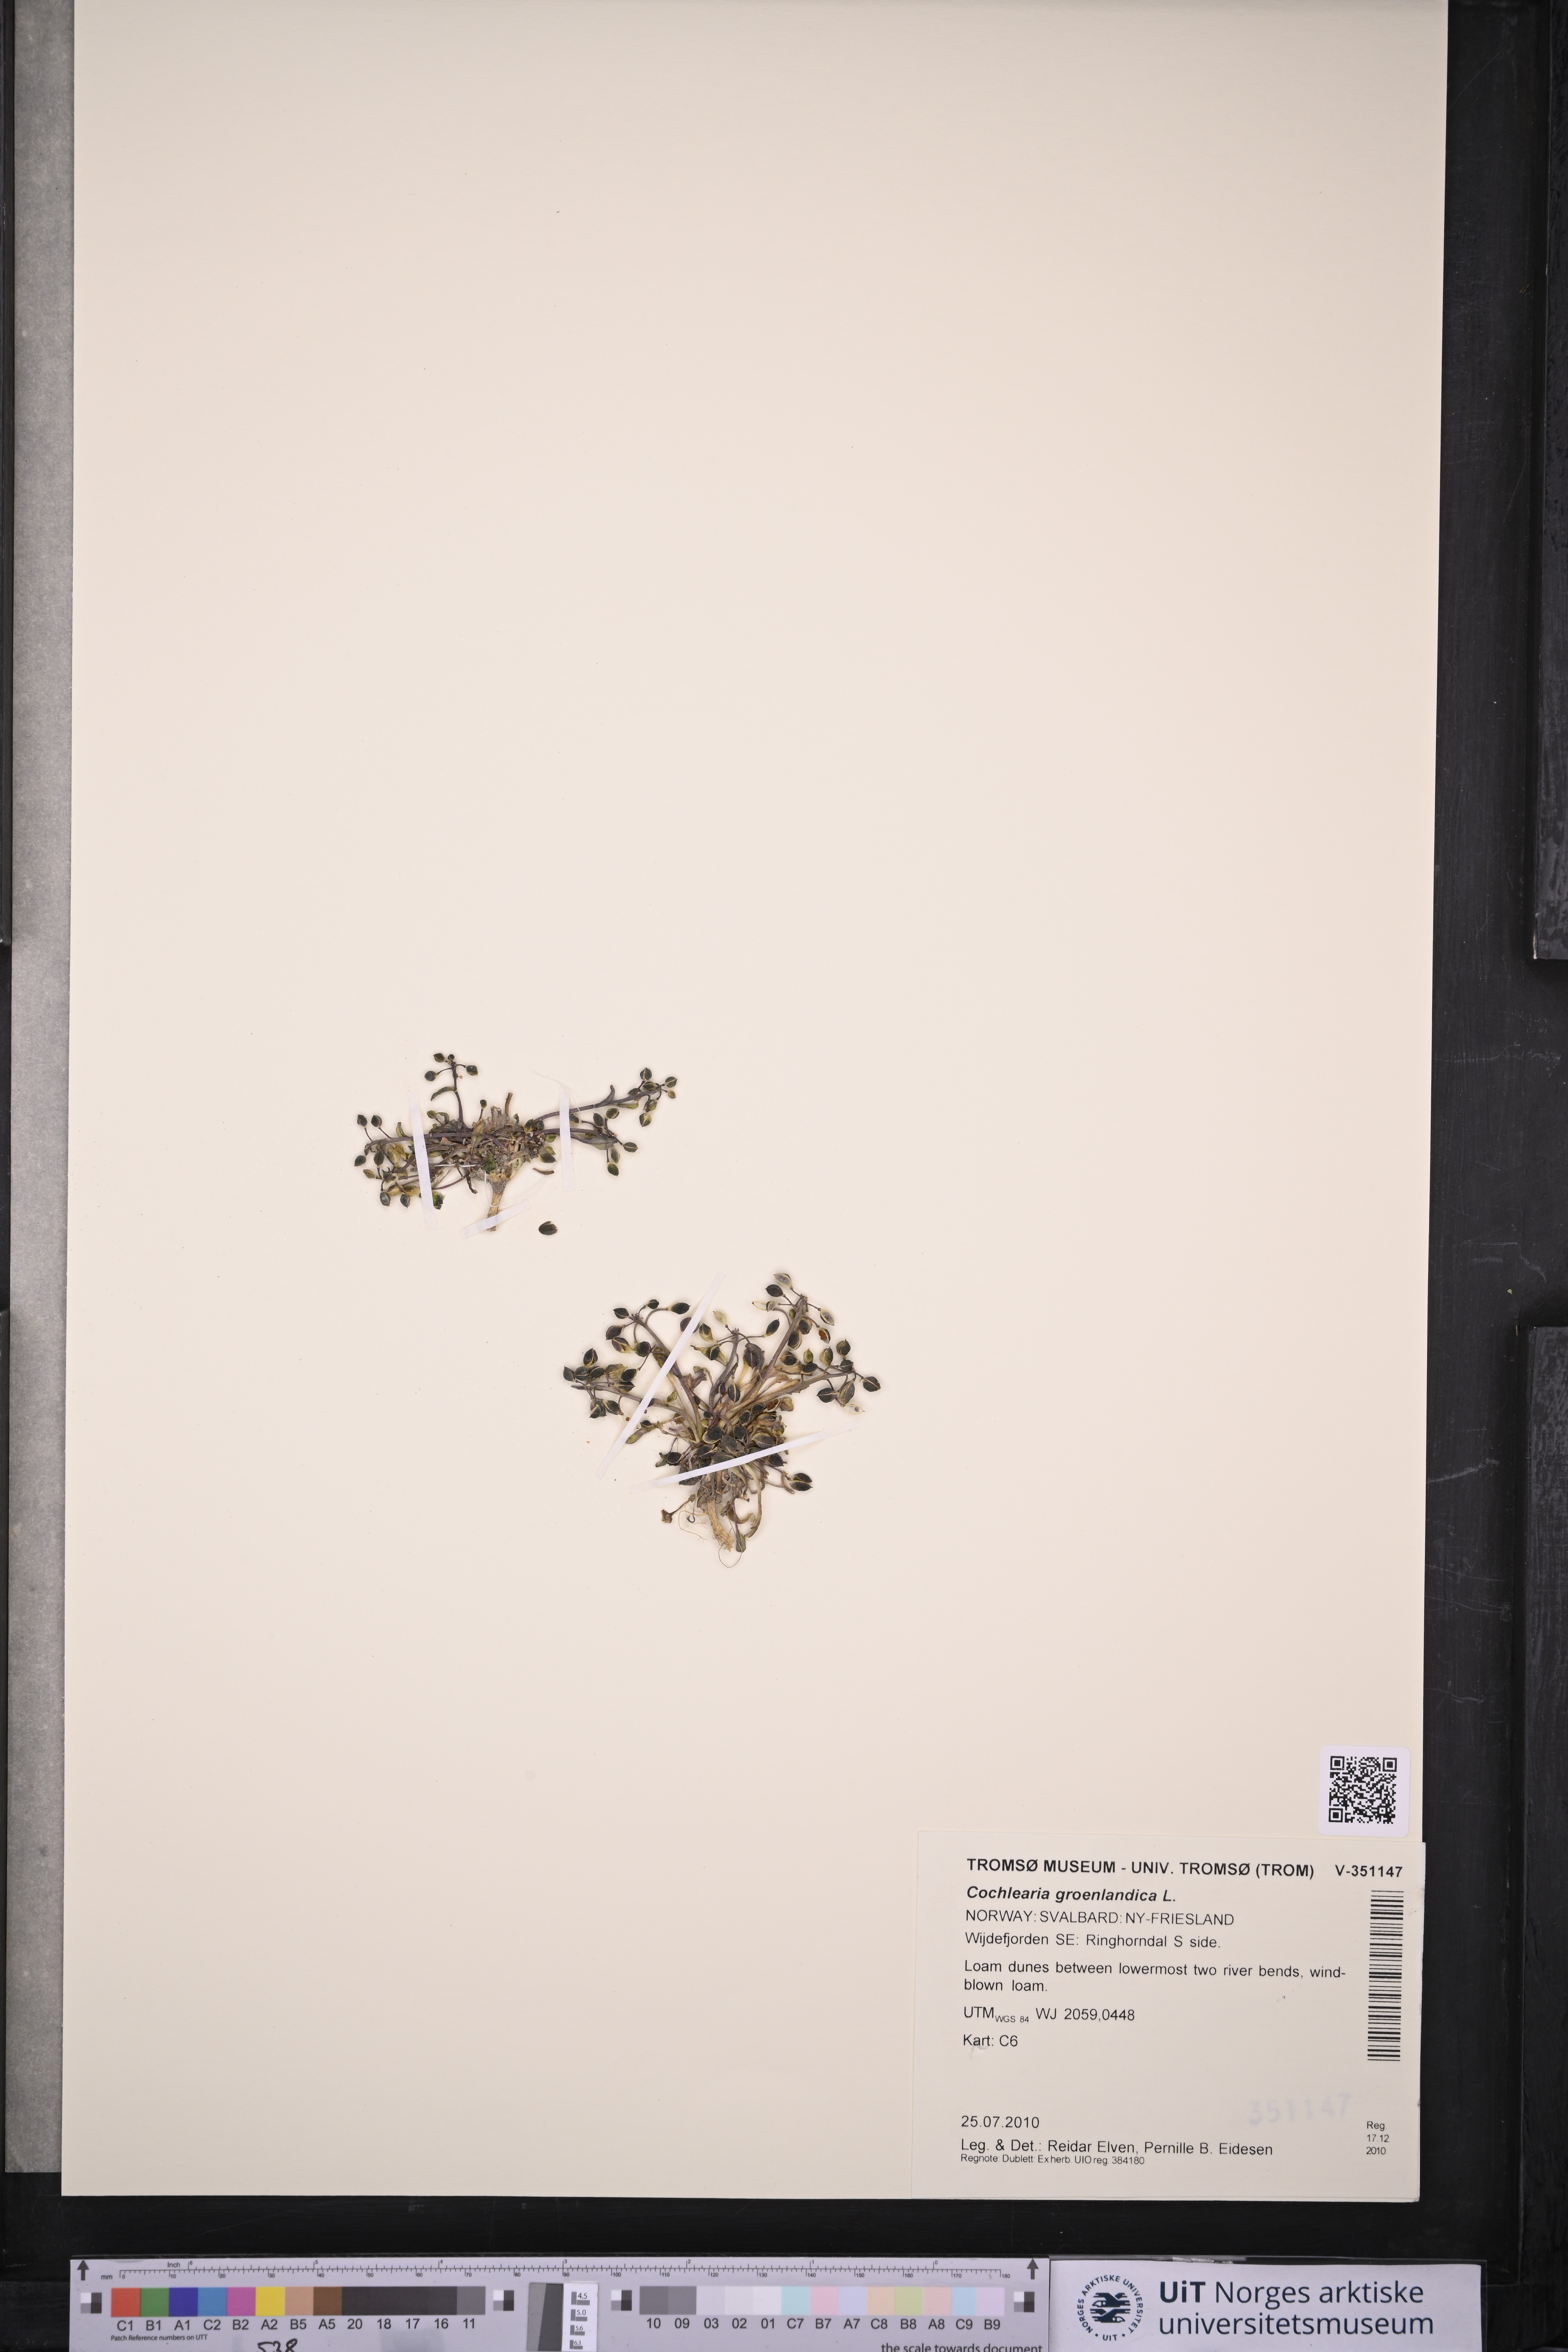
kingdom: Plantae
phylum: Tracheophyta
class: Magnoliopsida
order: Brassicales
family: Brassicaceae
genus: Cochlearia
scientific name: Cochlearia groenlandica
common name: Danish scurvygrass
